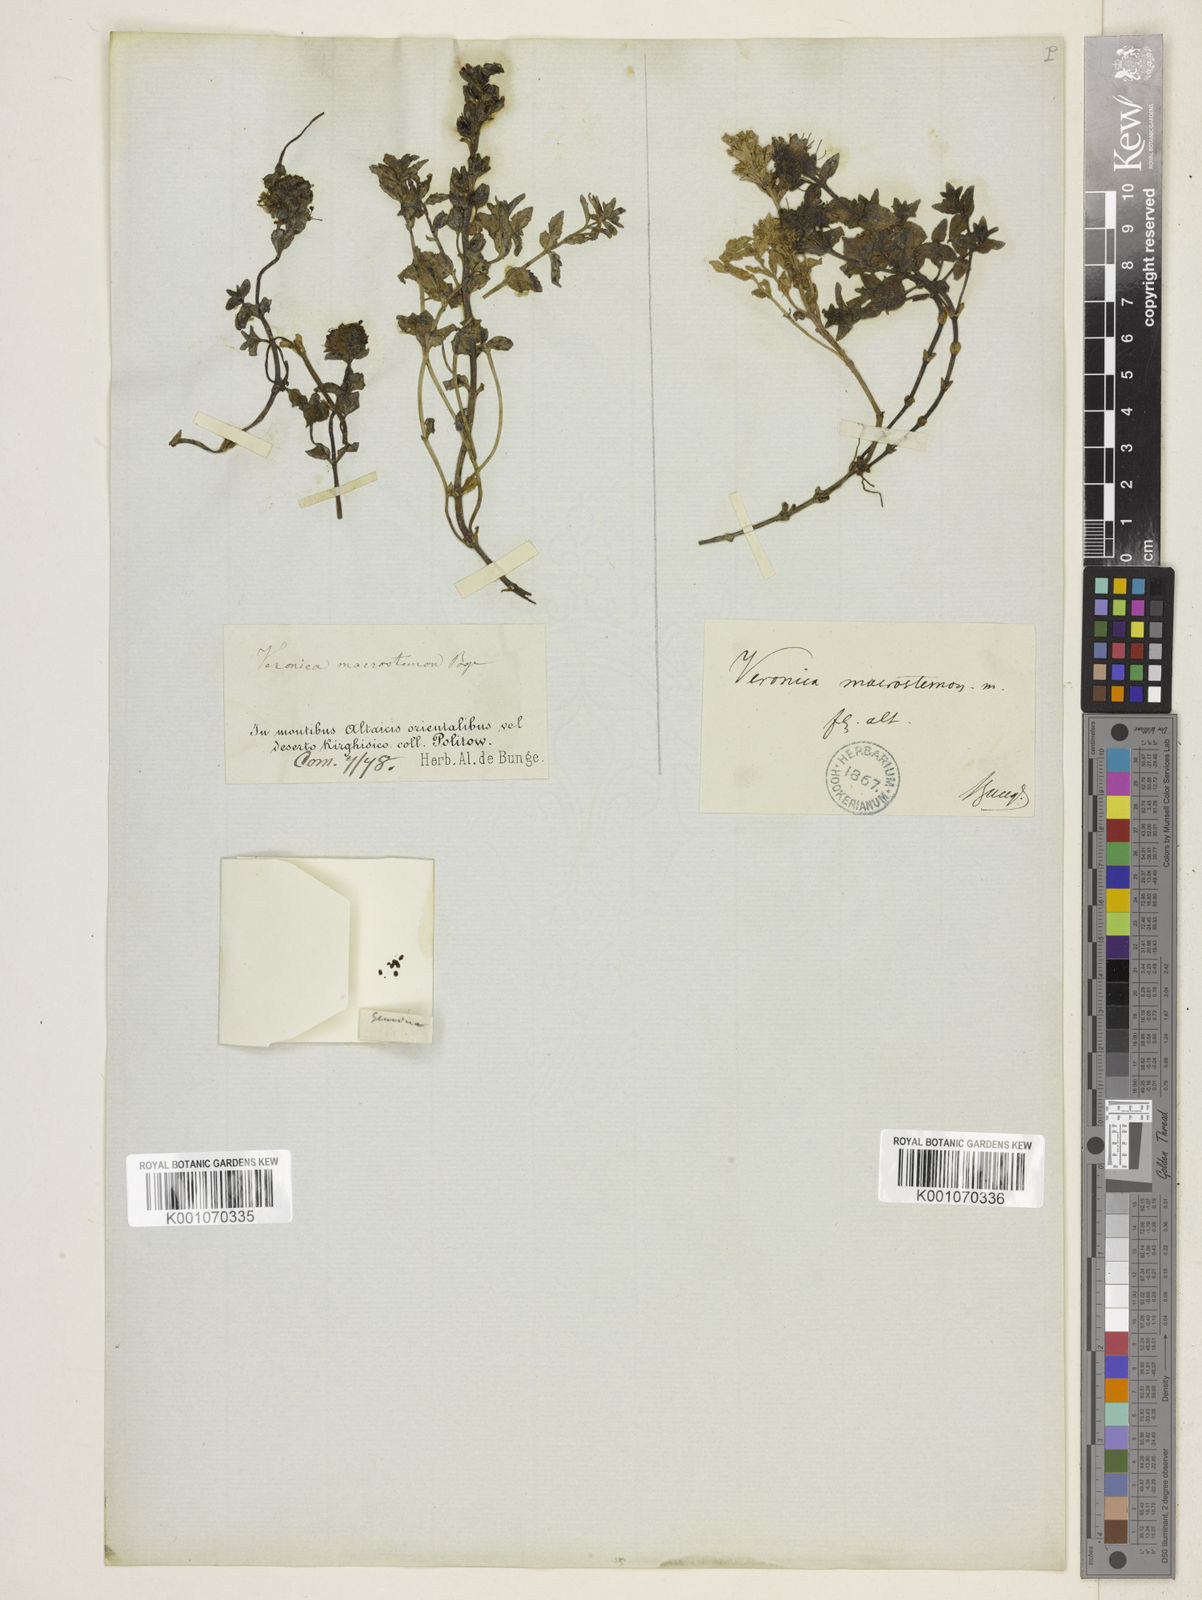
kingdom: Plantae
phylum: Tracheophyta
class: Magnoliopsida
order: Lamiales
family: Plantaginaceae
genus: Veronica
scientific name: Veronica macrostemon
